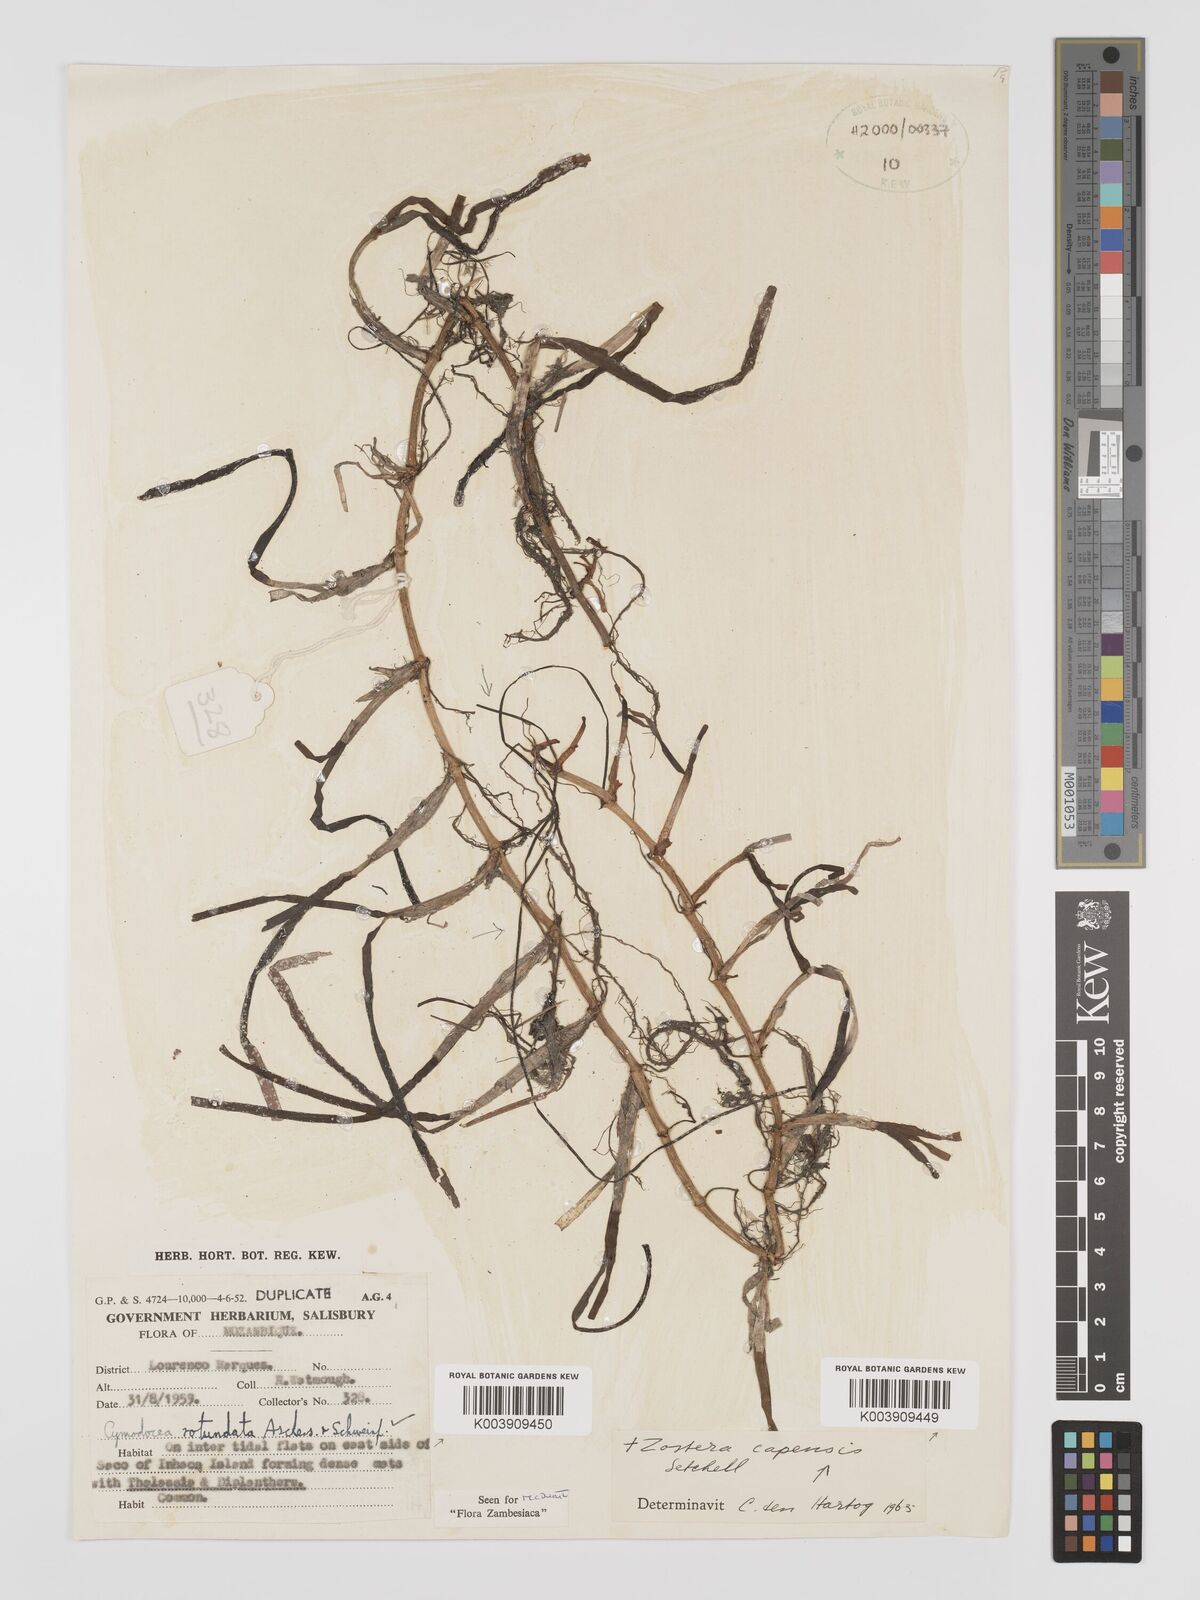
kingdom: Plantae
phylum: Tracheophyta
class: Liliopsida
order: Alismatales
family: Cymodoceaceae
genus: Cymodocea
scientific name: Cymodocea rotundata
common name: Species code: cr
